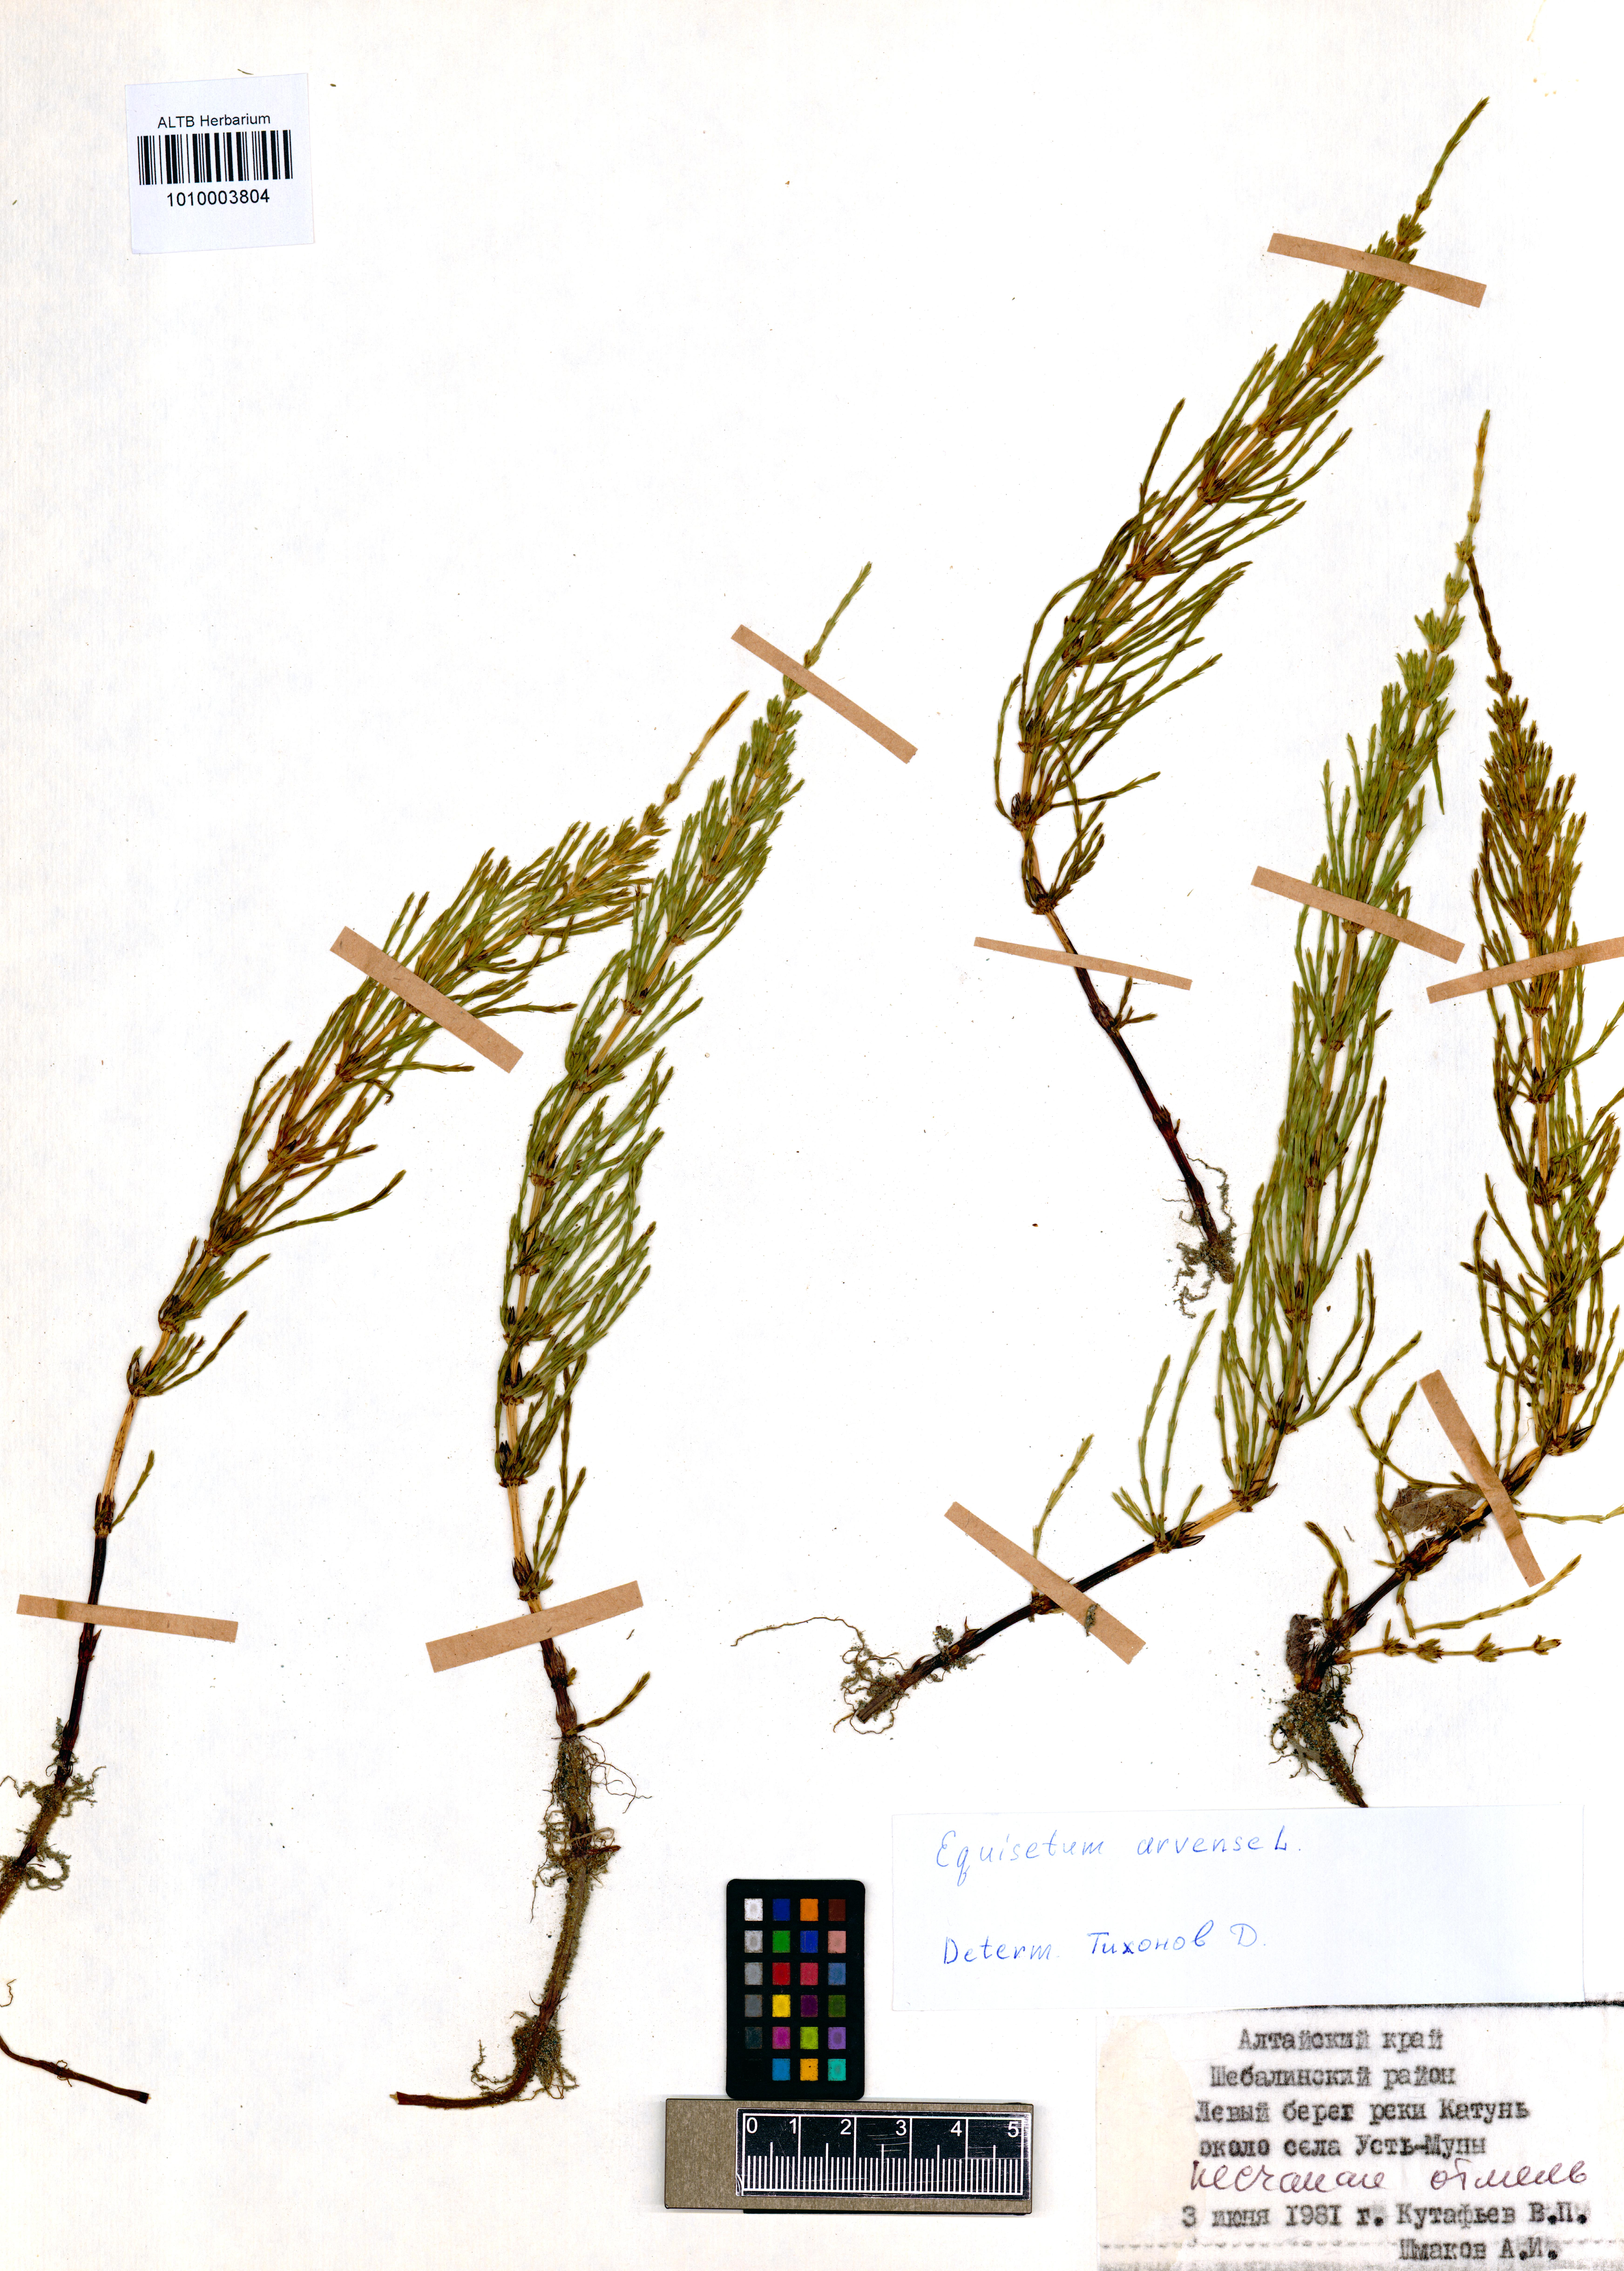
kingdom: Plantae
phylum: Tracheophyta
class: Polypodiopsida
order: Equisetales
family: Equisetaceae
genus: Equisetum
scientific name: Equisetum arvense
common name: Field horsetail
